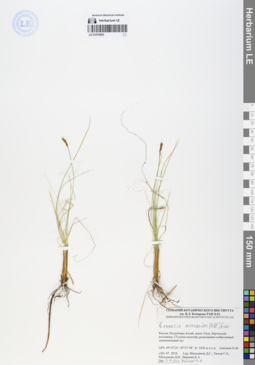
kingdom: Plantae
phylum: Tracheophyta
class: Liliopsida
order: Poales
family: Cyperaceae
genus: Carex
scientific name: Carex myosuroides
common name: Bellard's bog sedge
